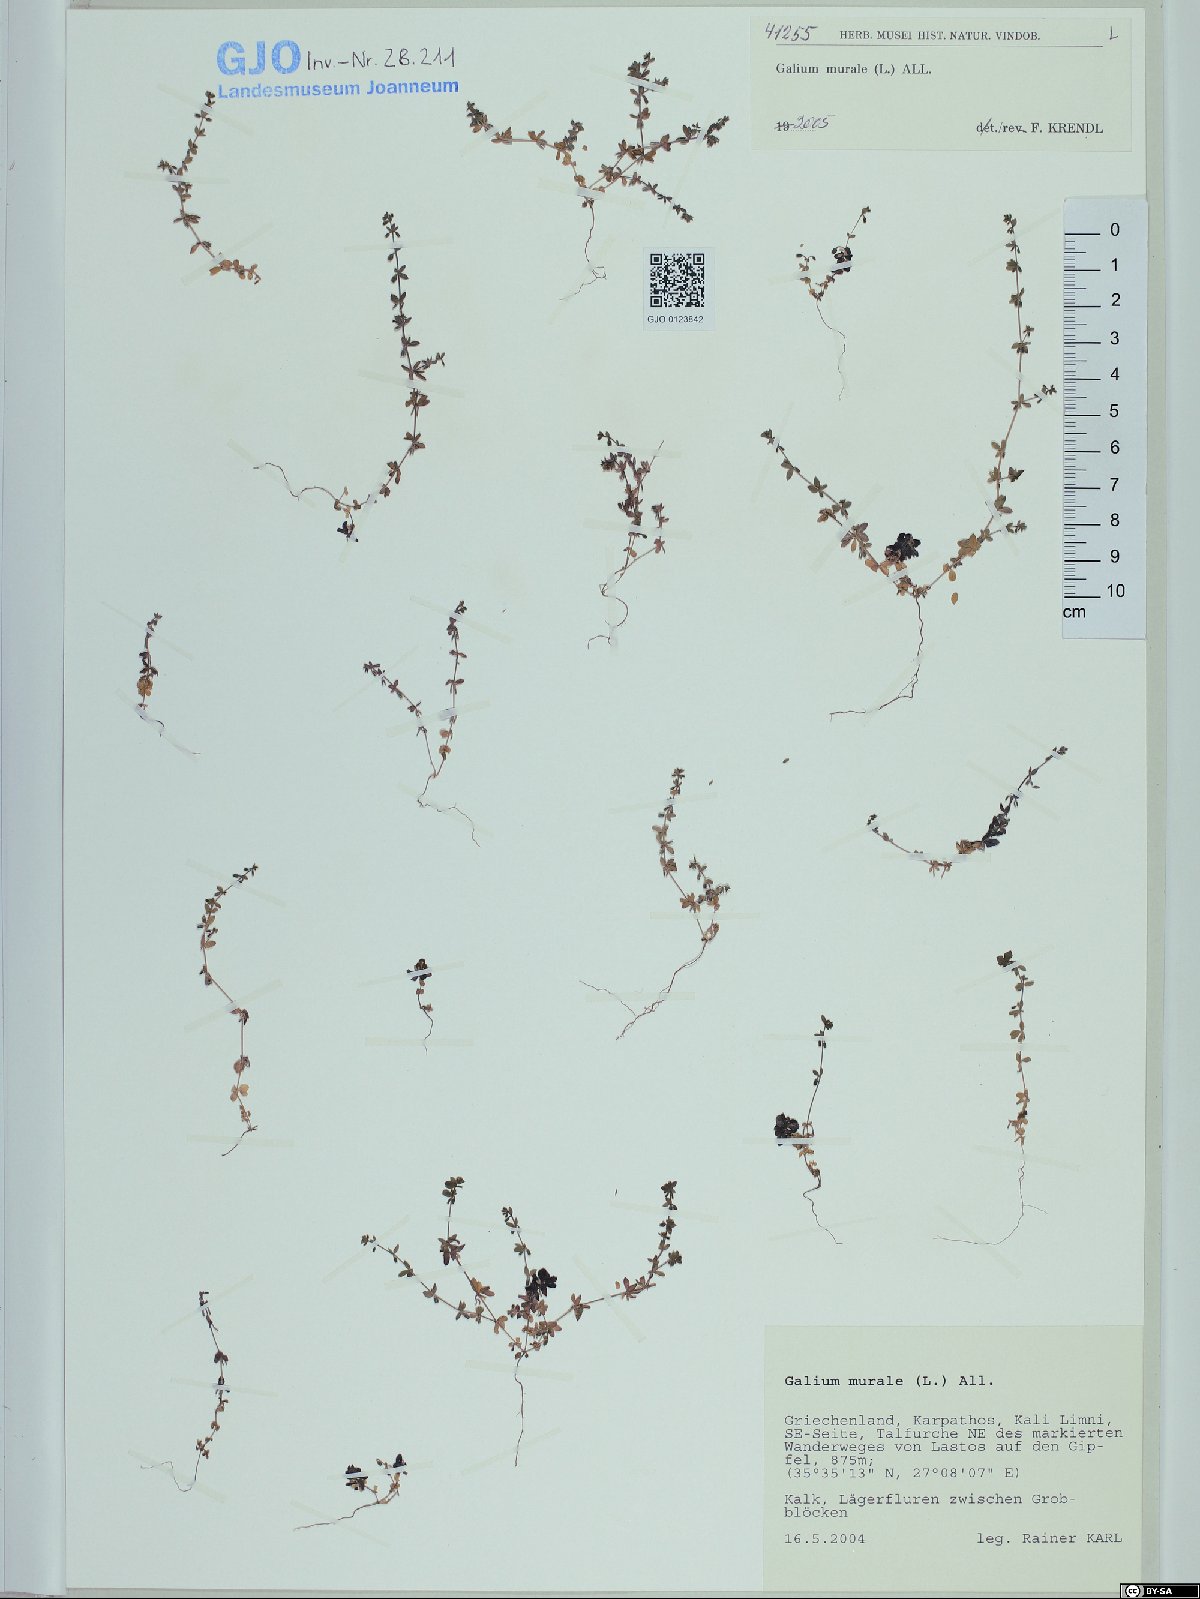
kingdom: Plantae
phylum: Tracheophyta
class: Magnoliopsida
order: Gentianales
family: Rubiaceae
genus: Galium
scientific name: Galium murale
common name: Yellow wall bedstraw
